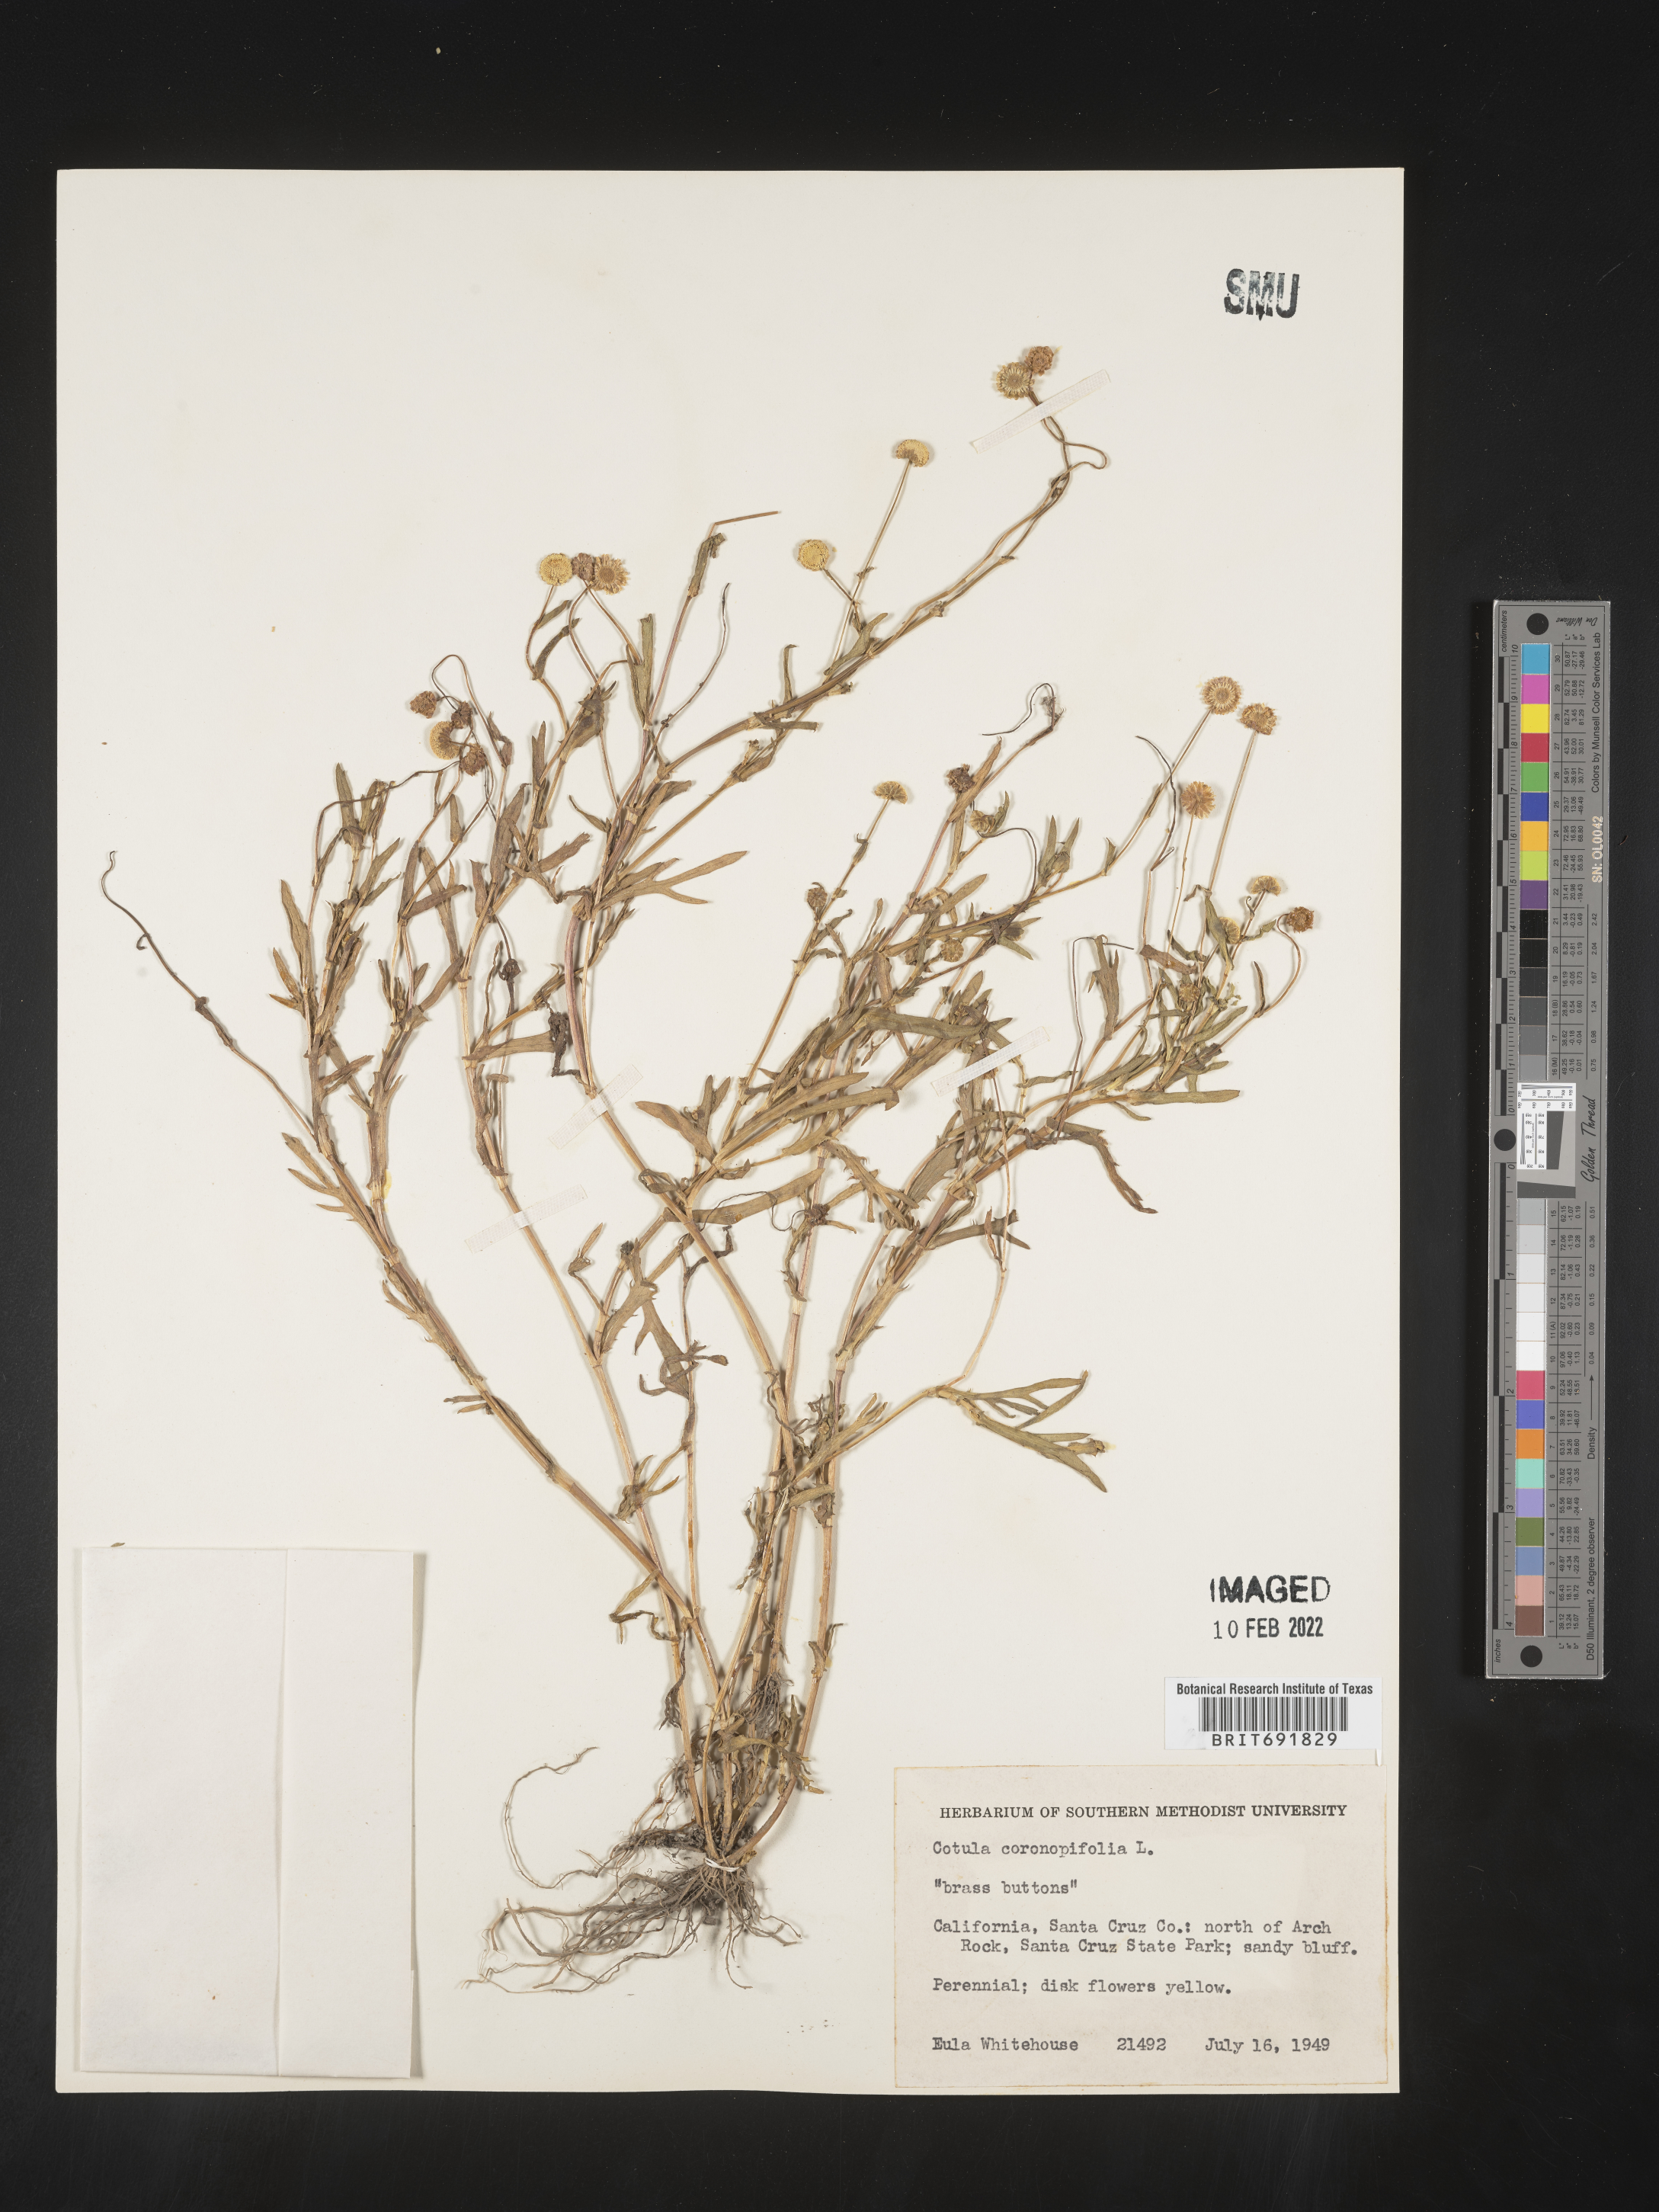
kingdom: Plantae
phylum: Tracheophyta
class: Magnoliopsida
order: Asterales
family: Asteraceae
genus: Cotula
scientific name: Cotula
